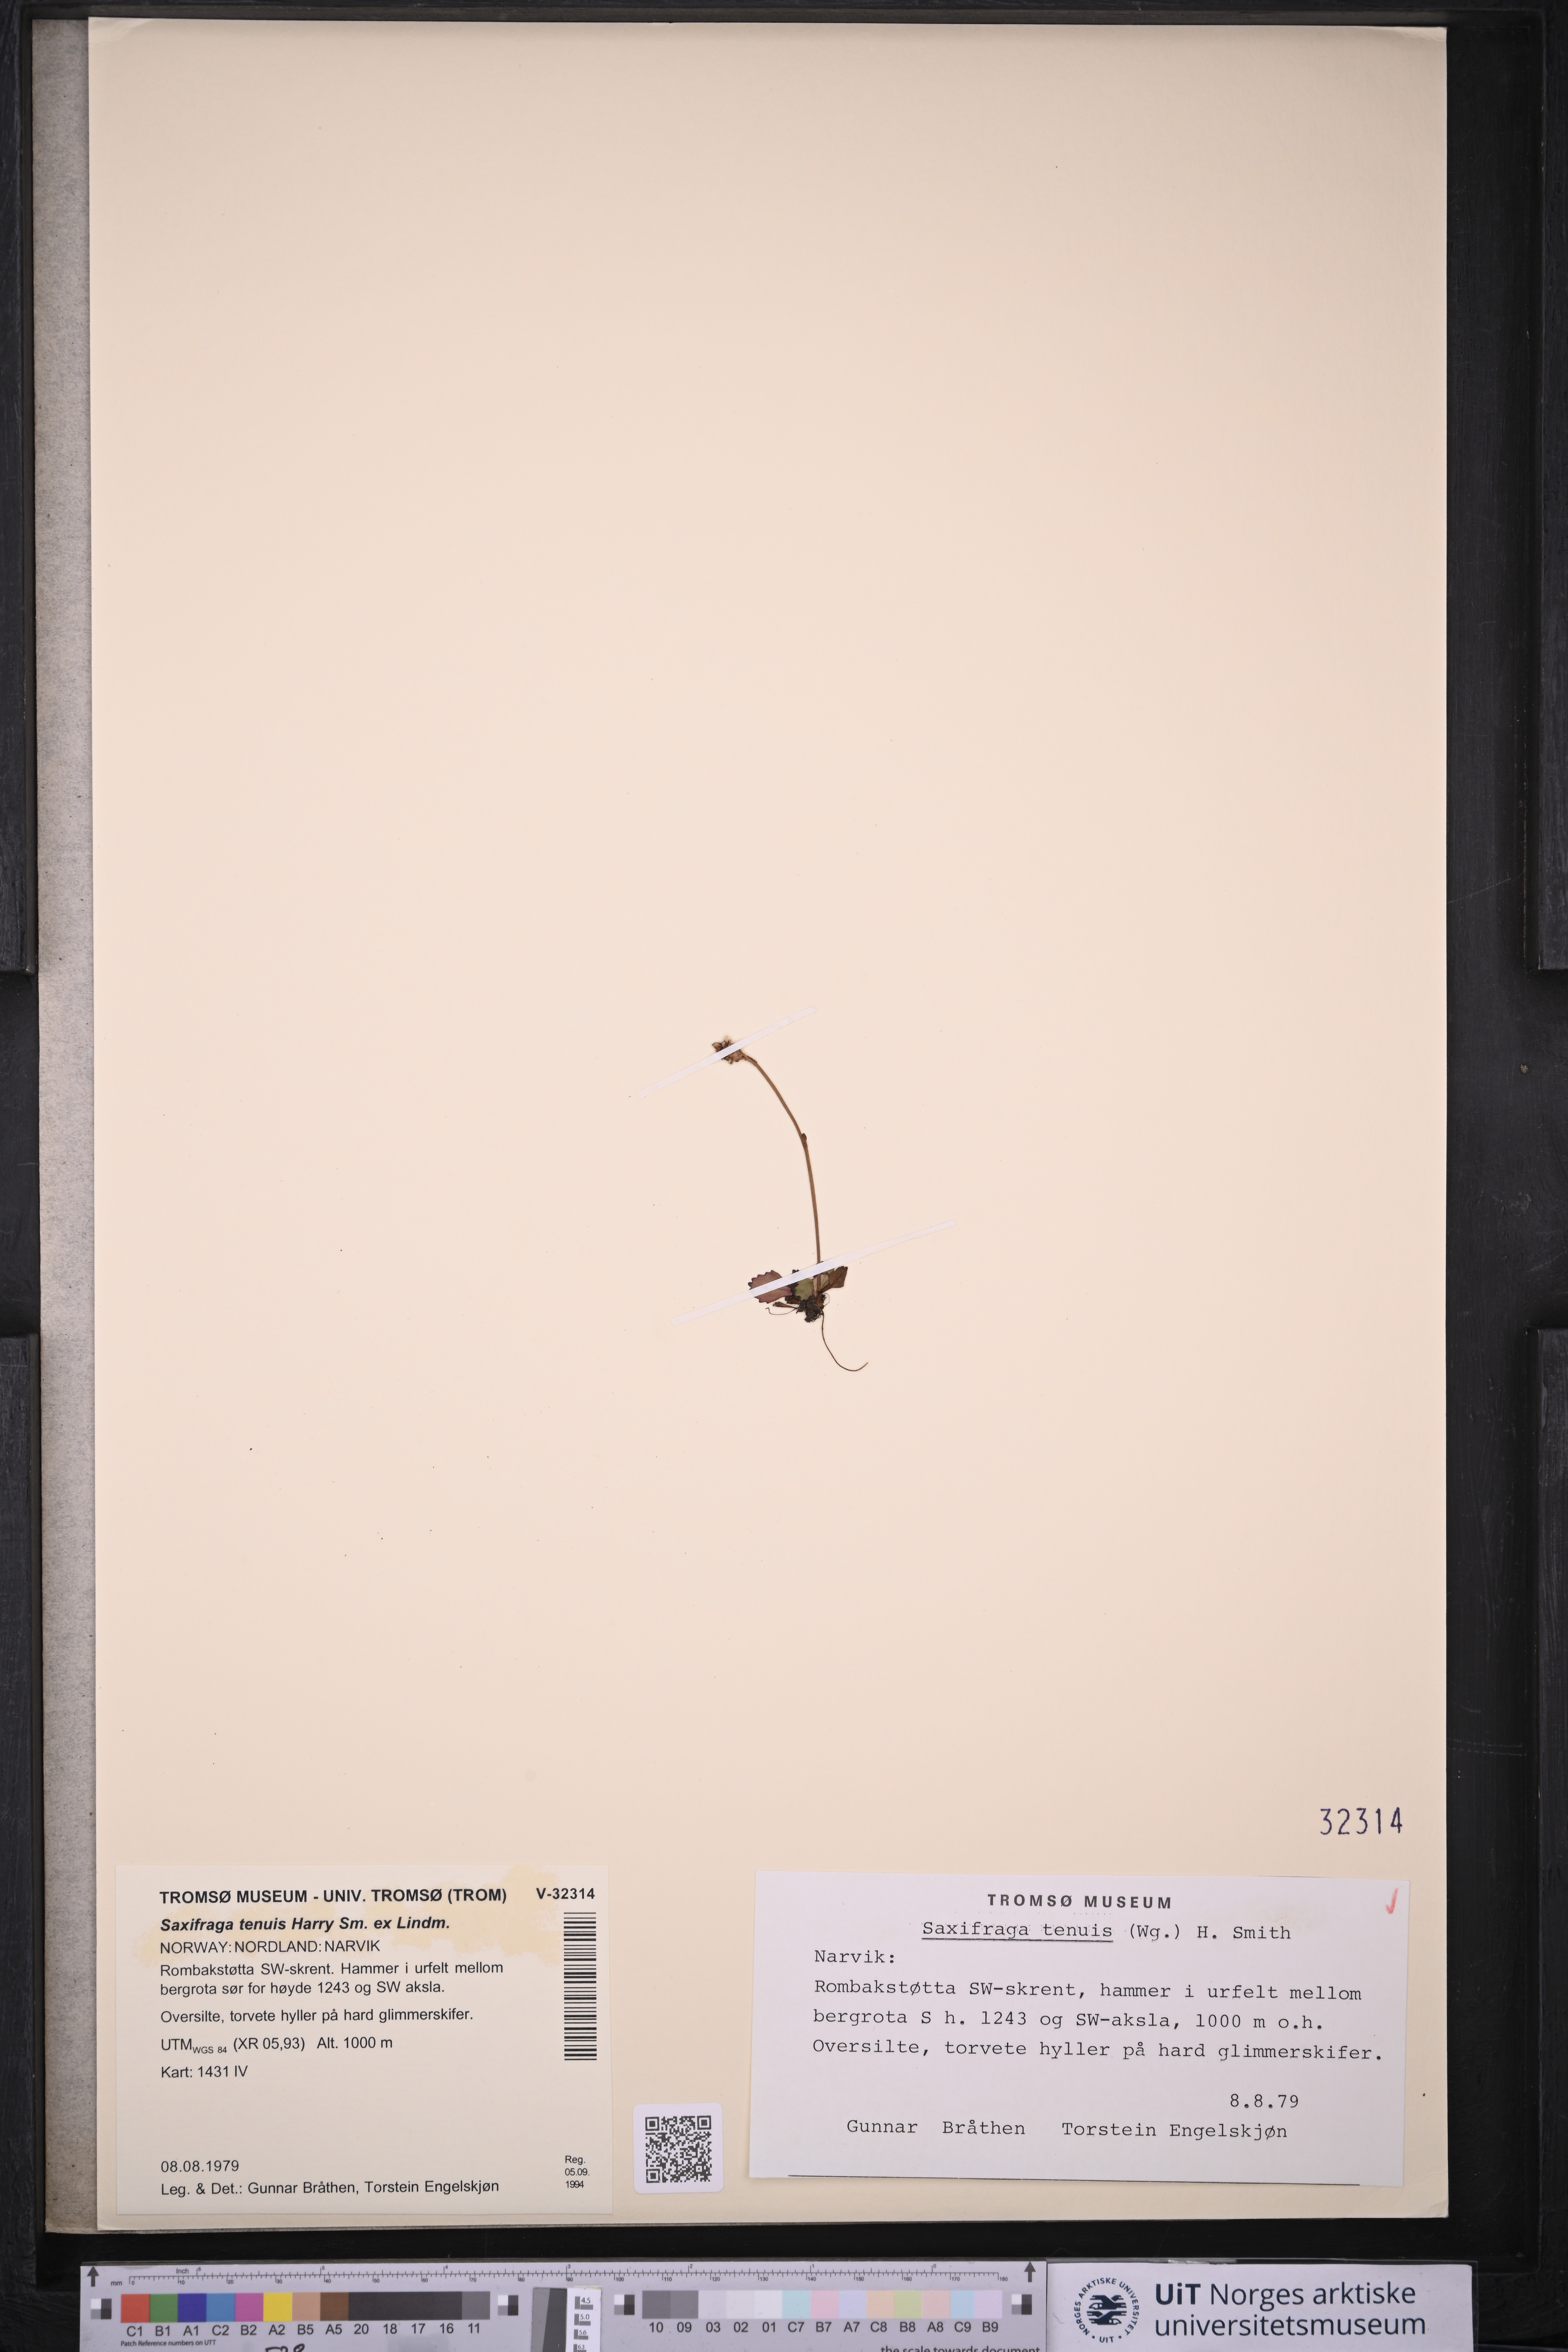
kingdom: Plantae
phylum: Tracheophyta
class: Magnoliopsida
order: Saxifragales
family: Saxifragaceae
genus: Micranthes
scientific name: Micranthes tenuis
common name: Ottertail pass saxifrage
